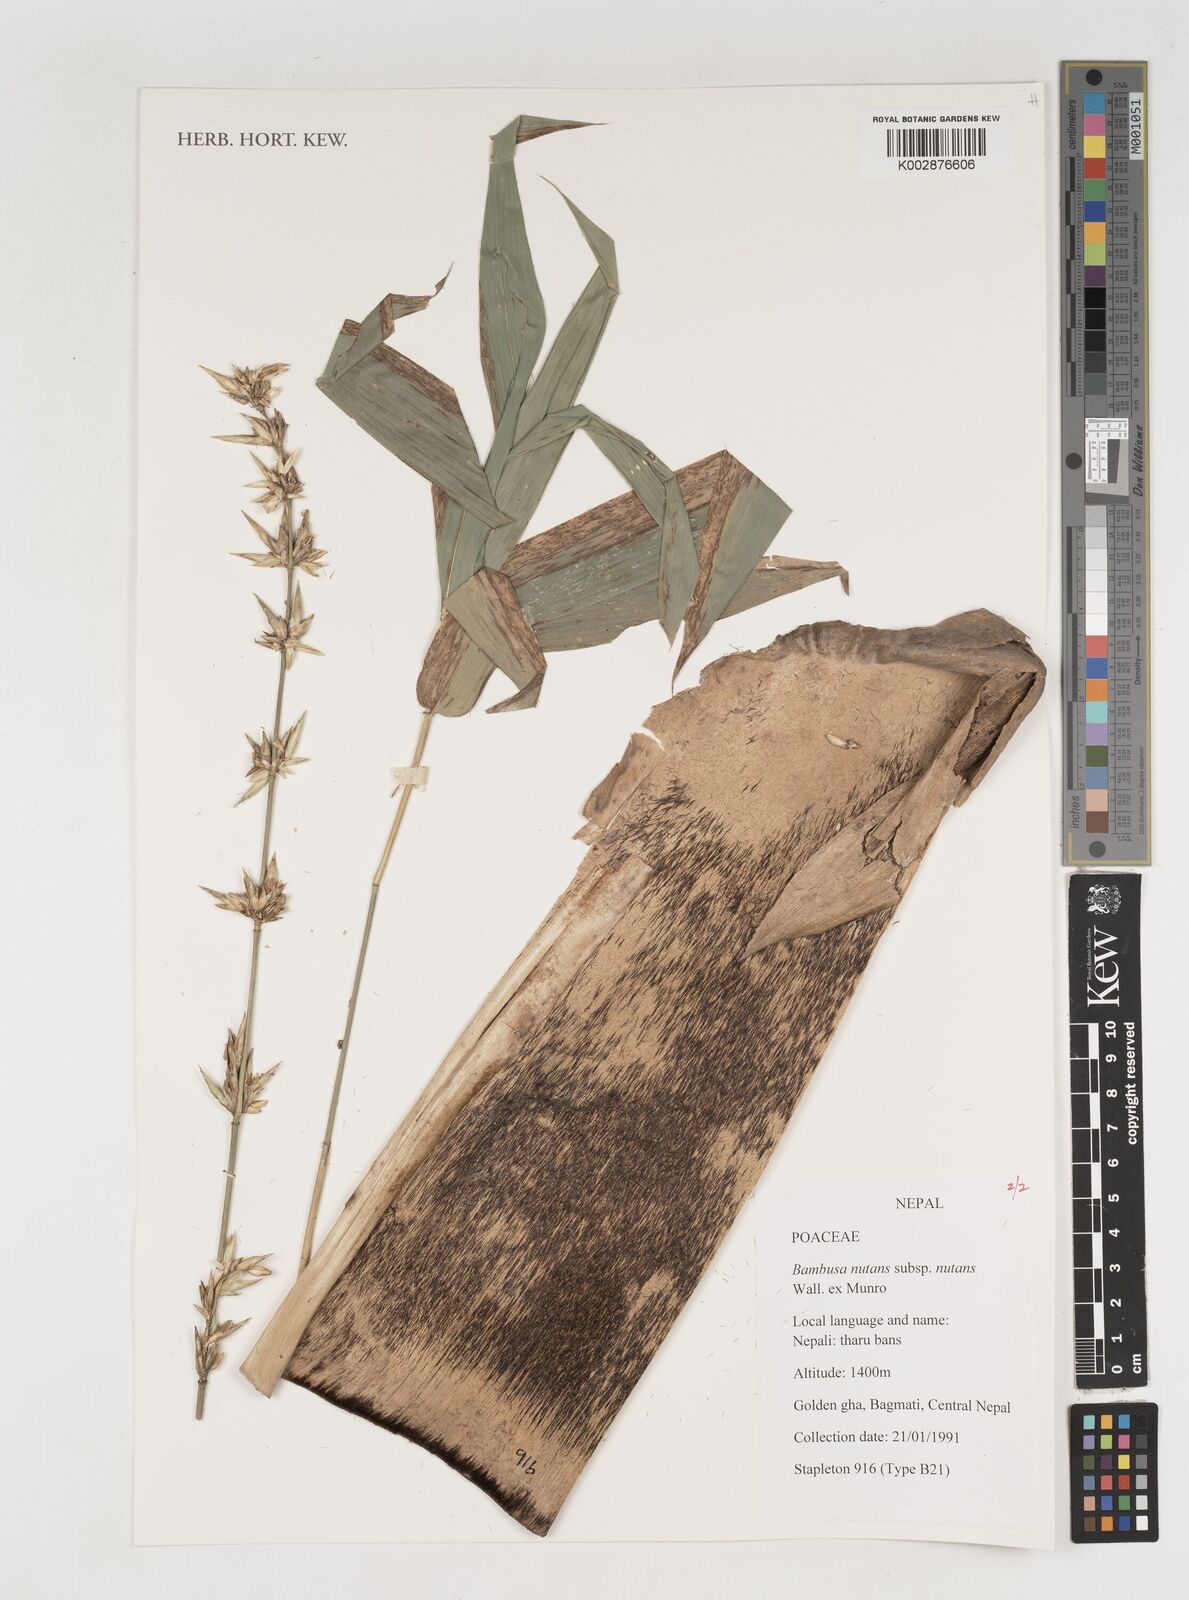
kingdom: Plantae
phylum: Tracheophyta
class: Liliopsida
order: Poales
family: Poaceae
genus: Bambusa
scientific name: Bambusa nutans
